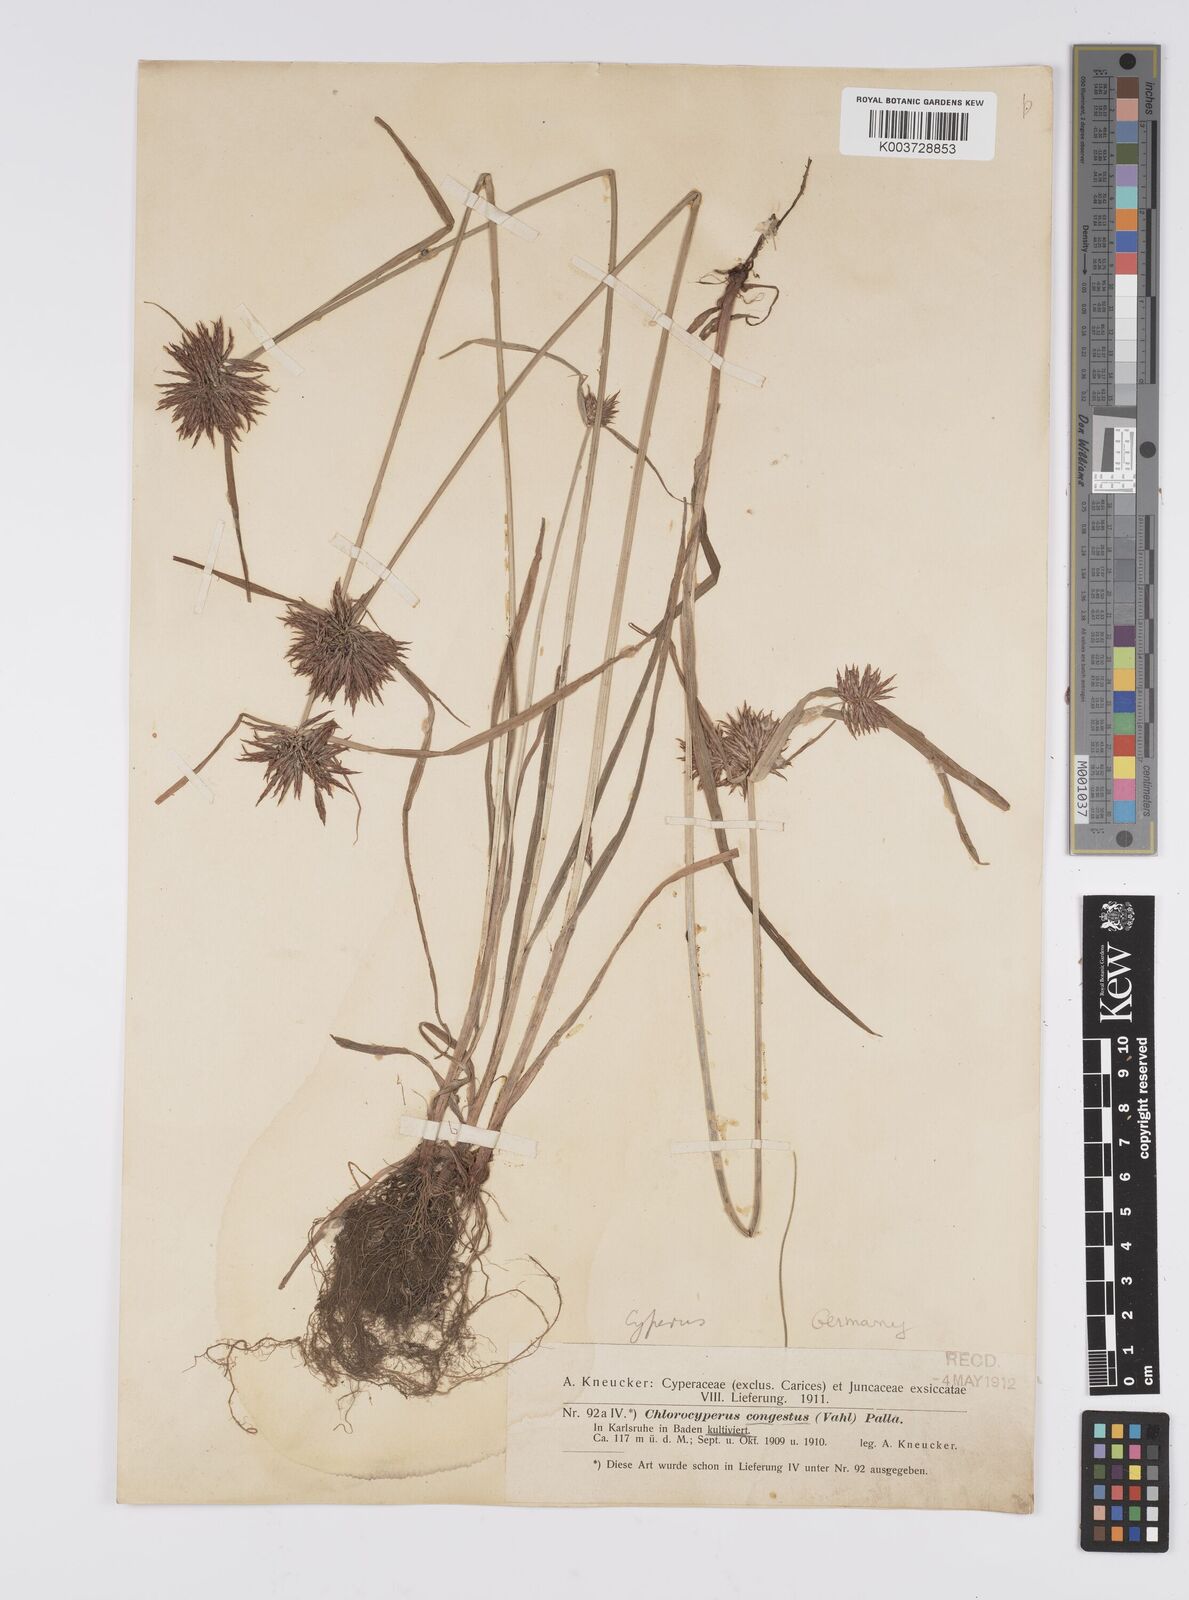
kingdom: Plantae
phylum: Tracheophyta
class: Liliopsida
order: Poales
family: Cyperaceae
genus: Cyperus
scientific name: Cyperus congestus
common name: Dense flat sedge
